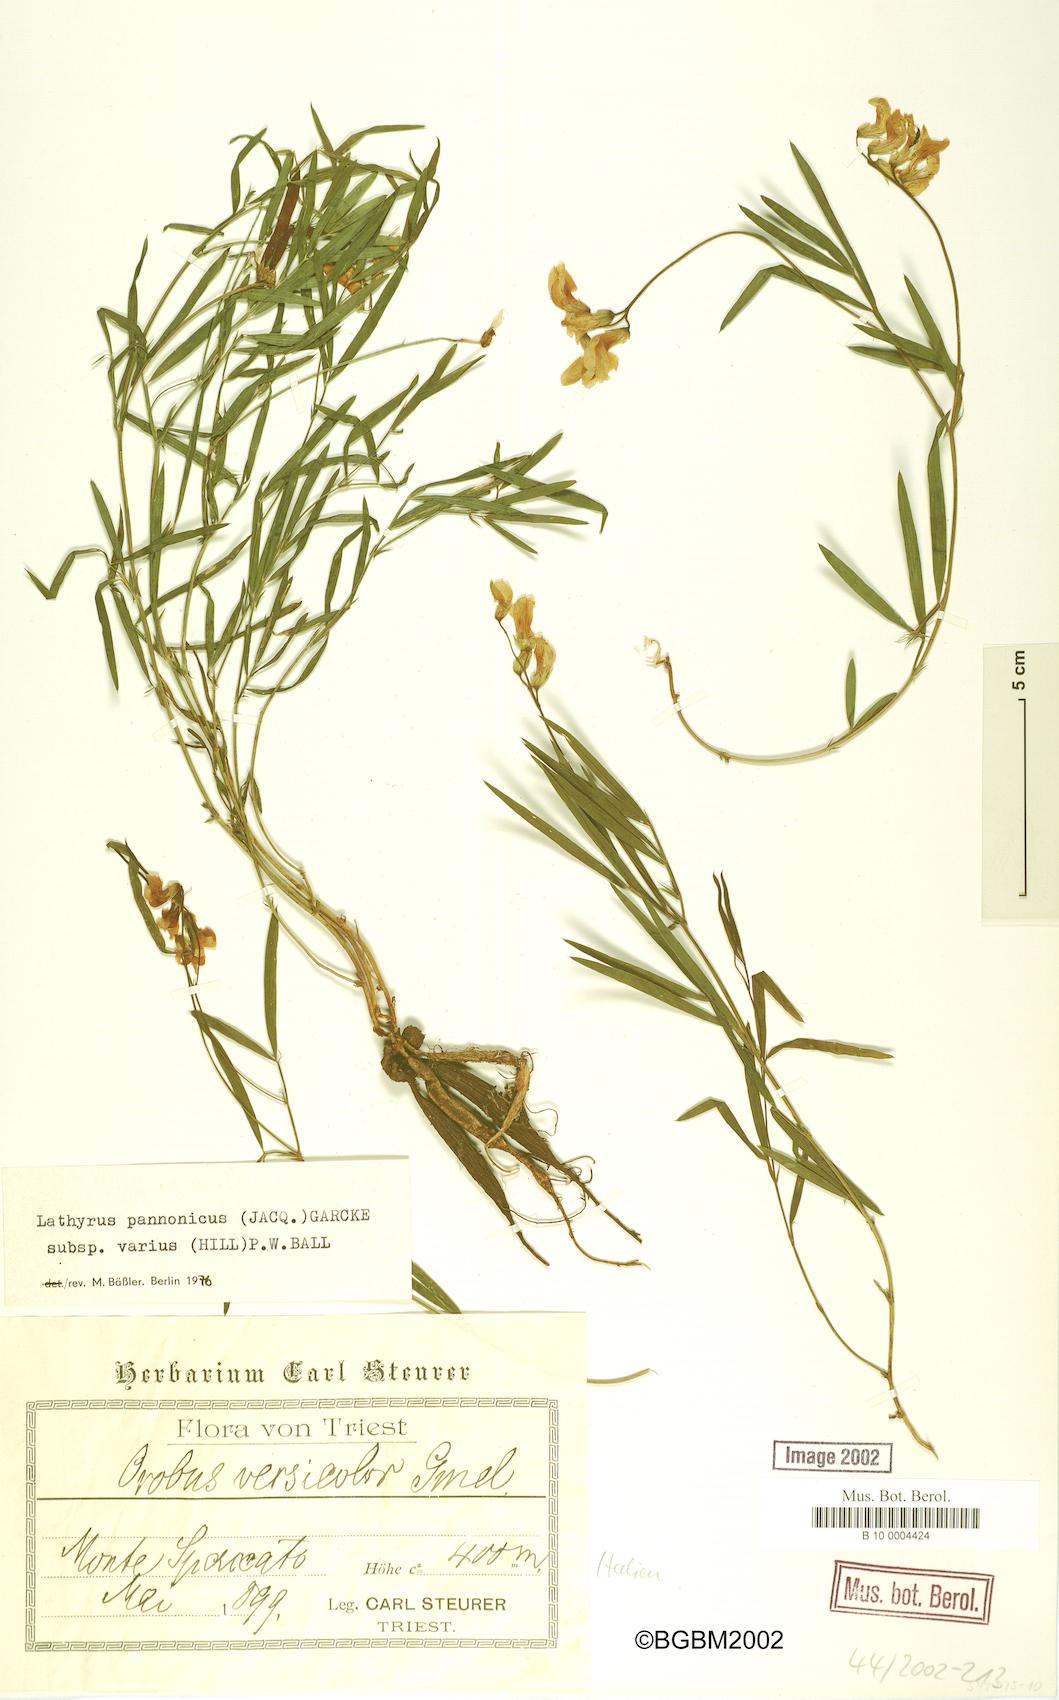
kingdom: Plantae
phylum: Tracheophyta
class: Magnoliopsida
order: Fabales
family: Fabaceae
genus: Lathyrus
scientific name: Lathyrus pannonicus
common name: Pea
